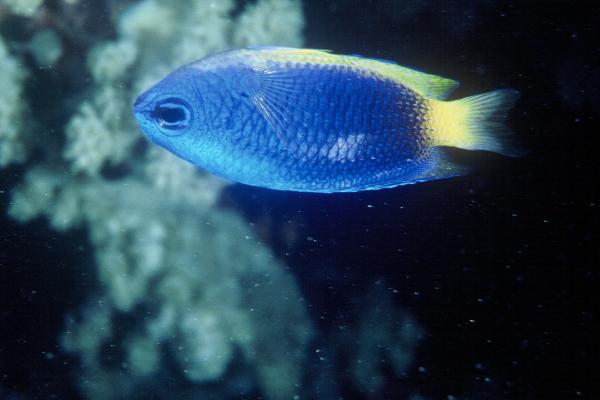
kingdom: Animalia
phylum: Chordata
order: Perciformes
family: Pomacentridae
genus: Pomacentrus
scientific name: Pomacentrus caeruleus
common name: Caerulean damsel
